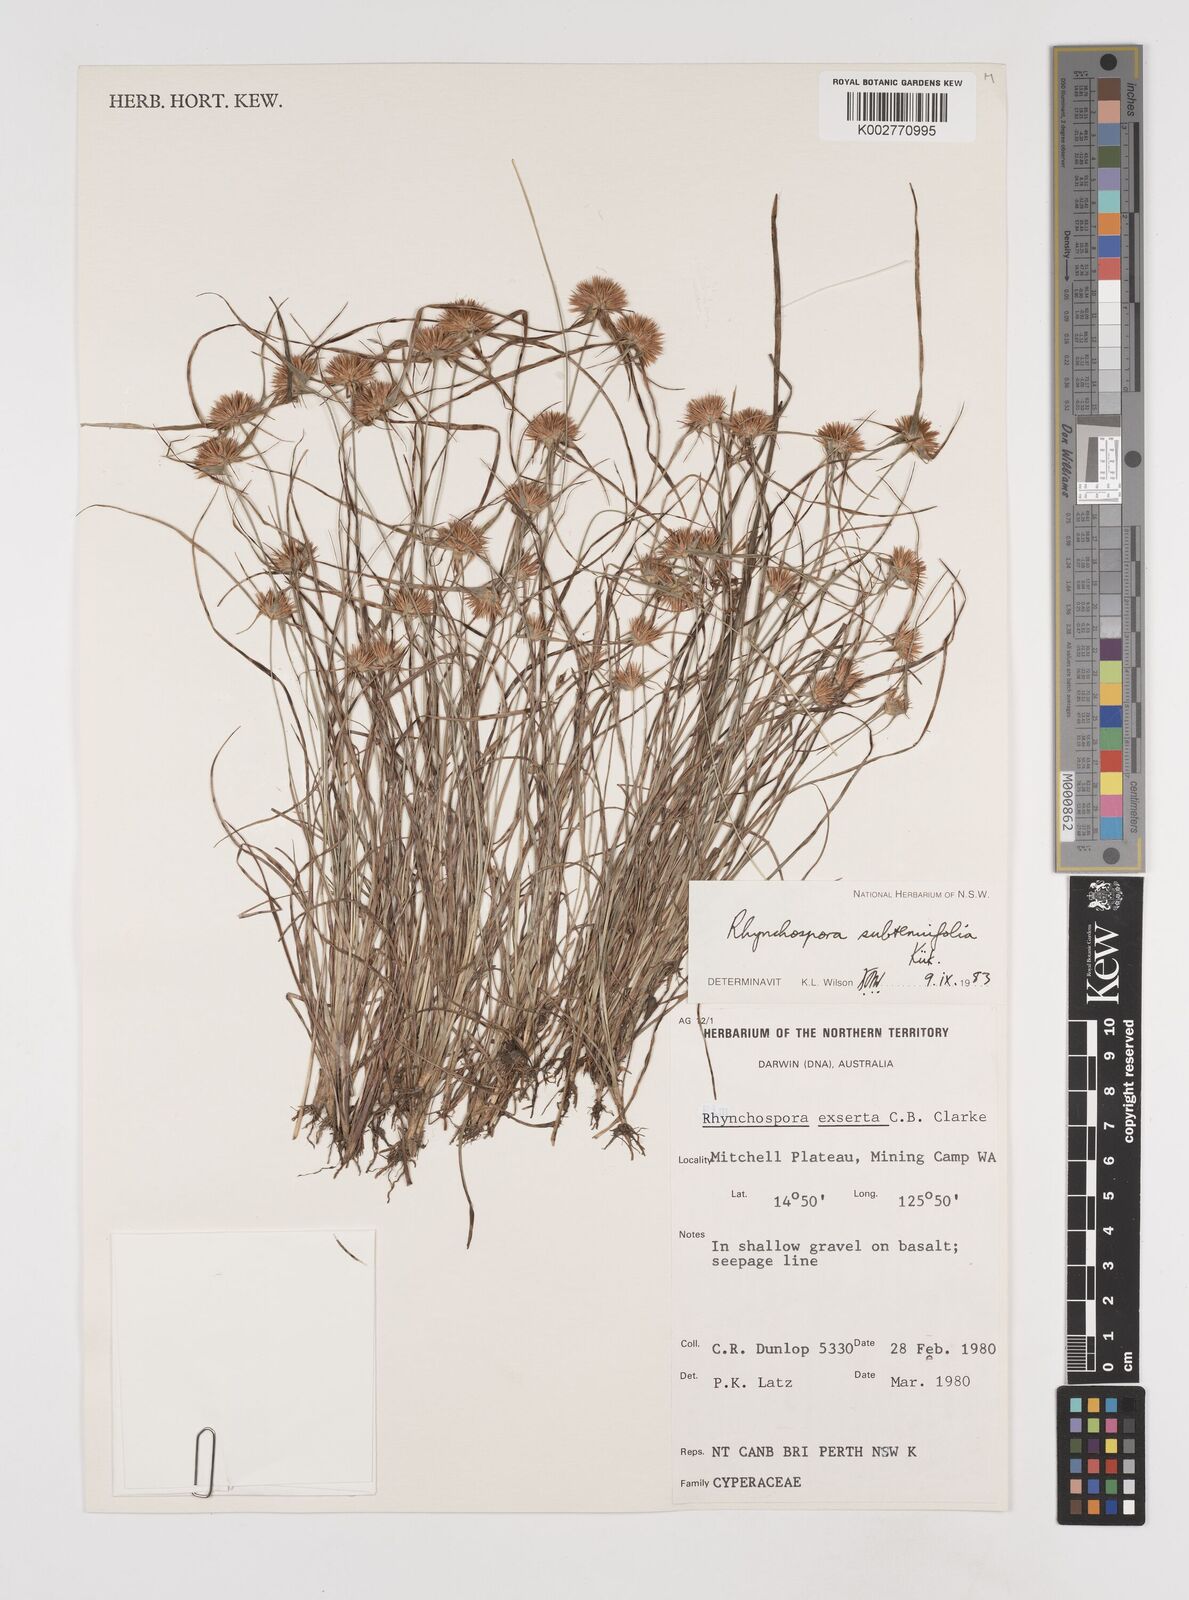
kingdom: Plantae
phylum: Tracheophyta
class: Liliopsida
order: Poales
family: Cyperaceae
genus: Rhynchospora
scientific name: Rhynchospora subtenuifolia
